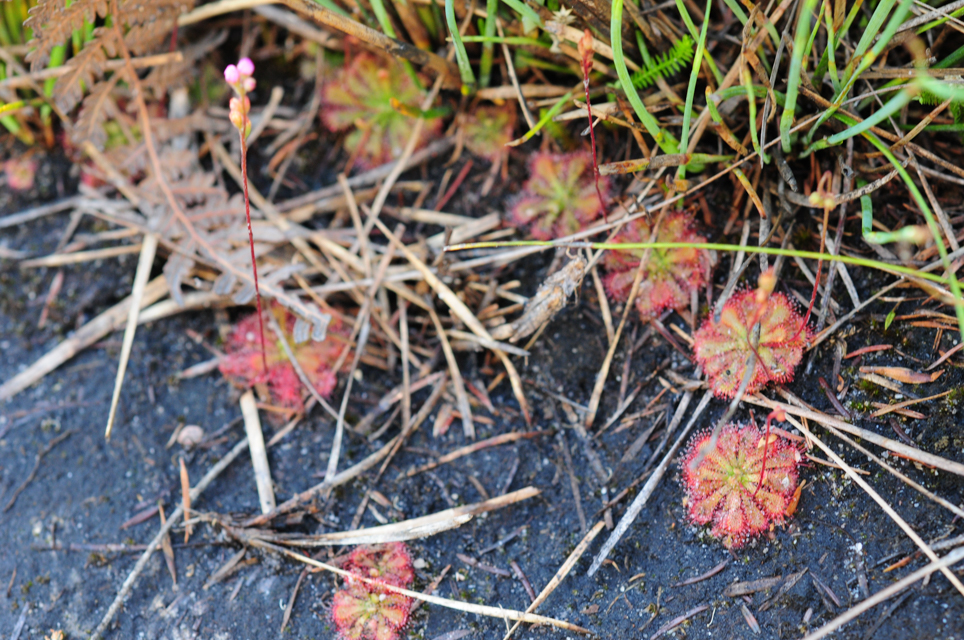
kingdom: Plantae
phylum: Tracheophyta
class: Magnoliopsida
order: Caryophyllales
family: Droseraceae
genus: Drosera
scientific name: Drosera spatulata
